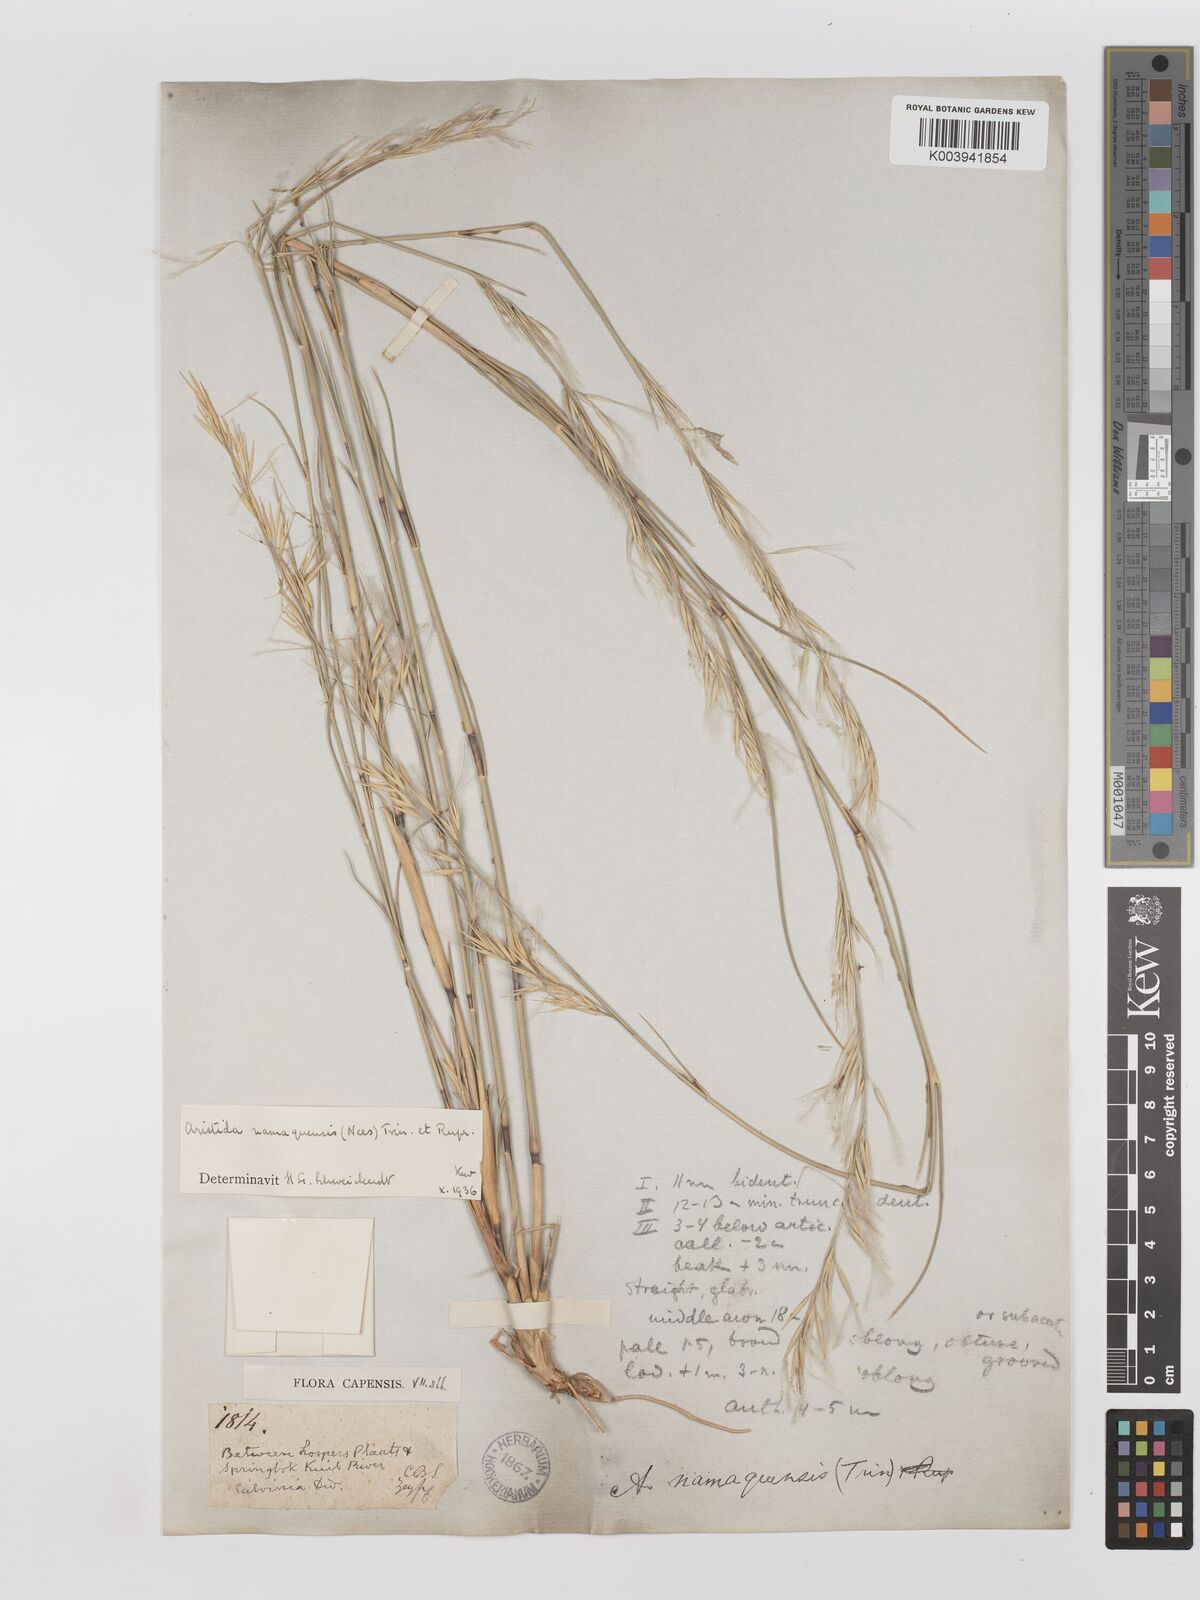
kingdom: Plantae
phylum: Tracheophyta
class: Liliopsida
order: Poales
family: Poaceae
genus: Stipagrostis
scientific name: Stipagrostis namaquensis
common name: River bushman grass
